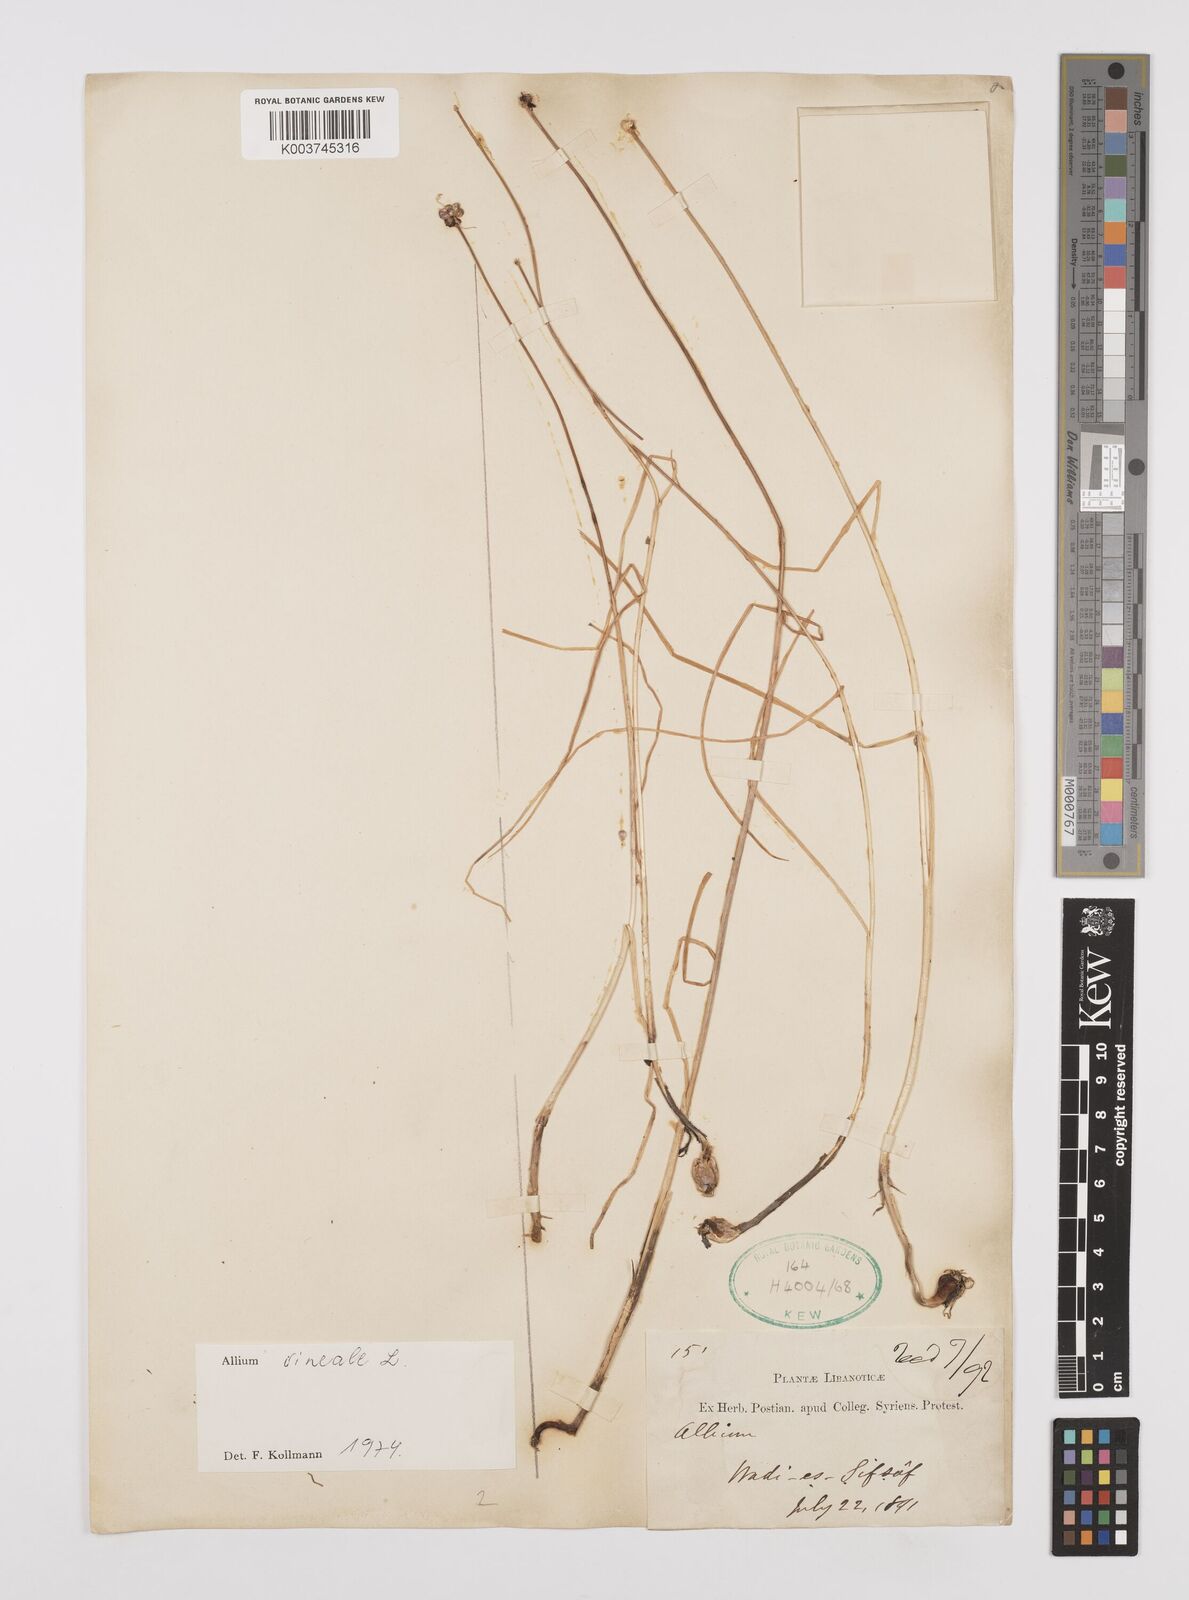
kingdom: Plantae
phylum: Tracheophyta
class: Liliopsida
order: Asparagales
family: Amaryllidaceae
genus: Allium
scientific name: Allium vineale
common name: Crow garlic
